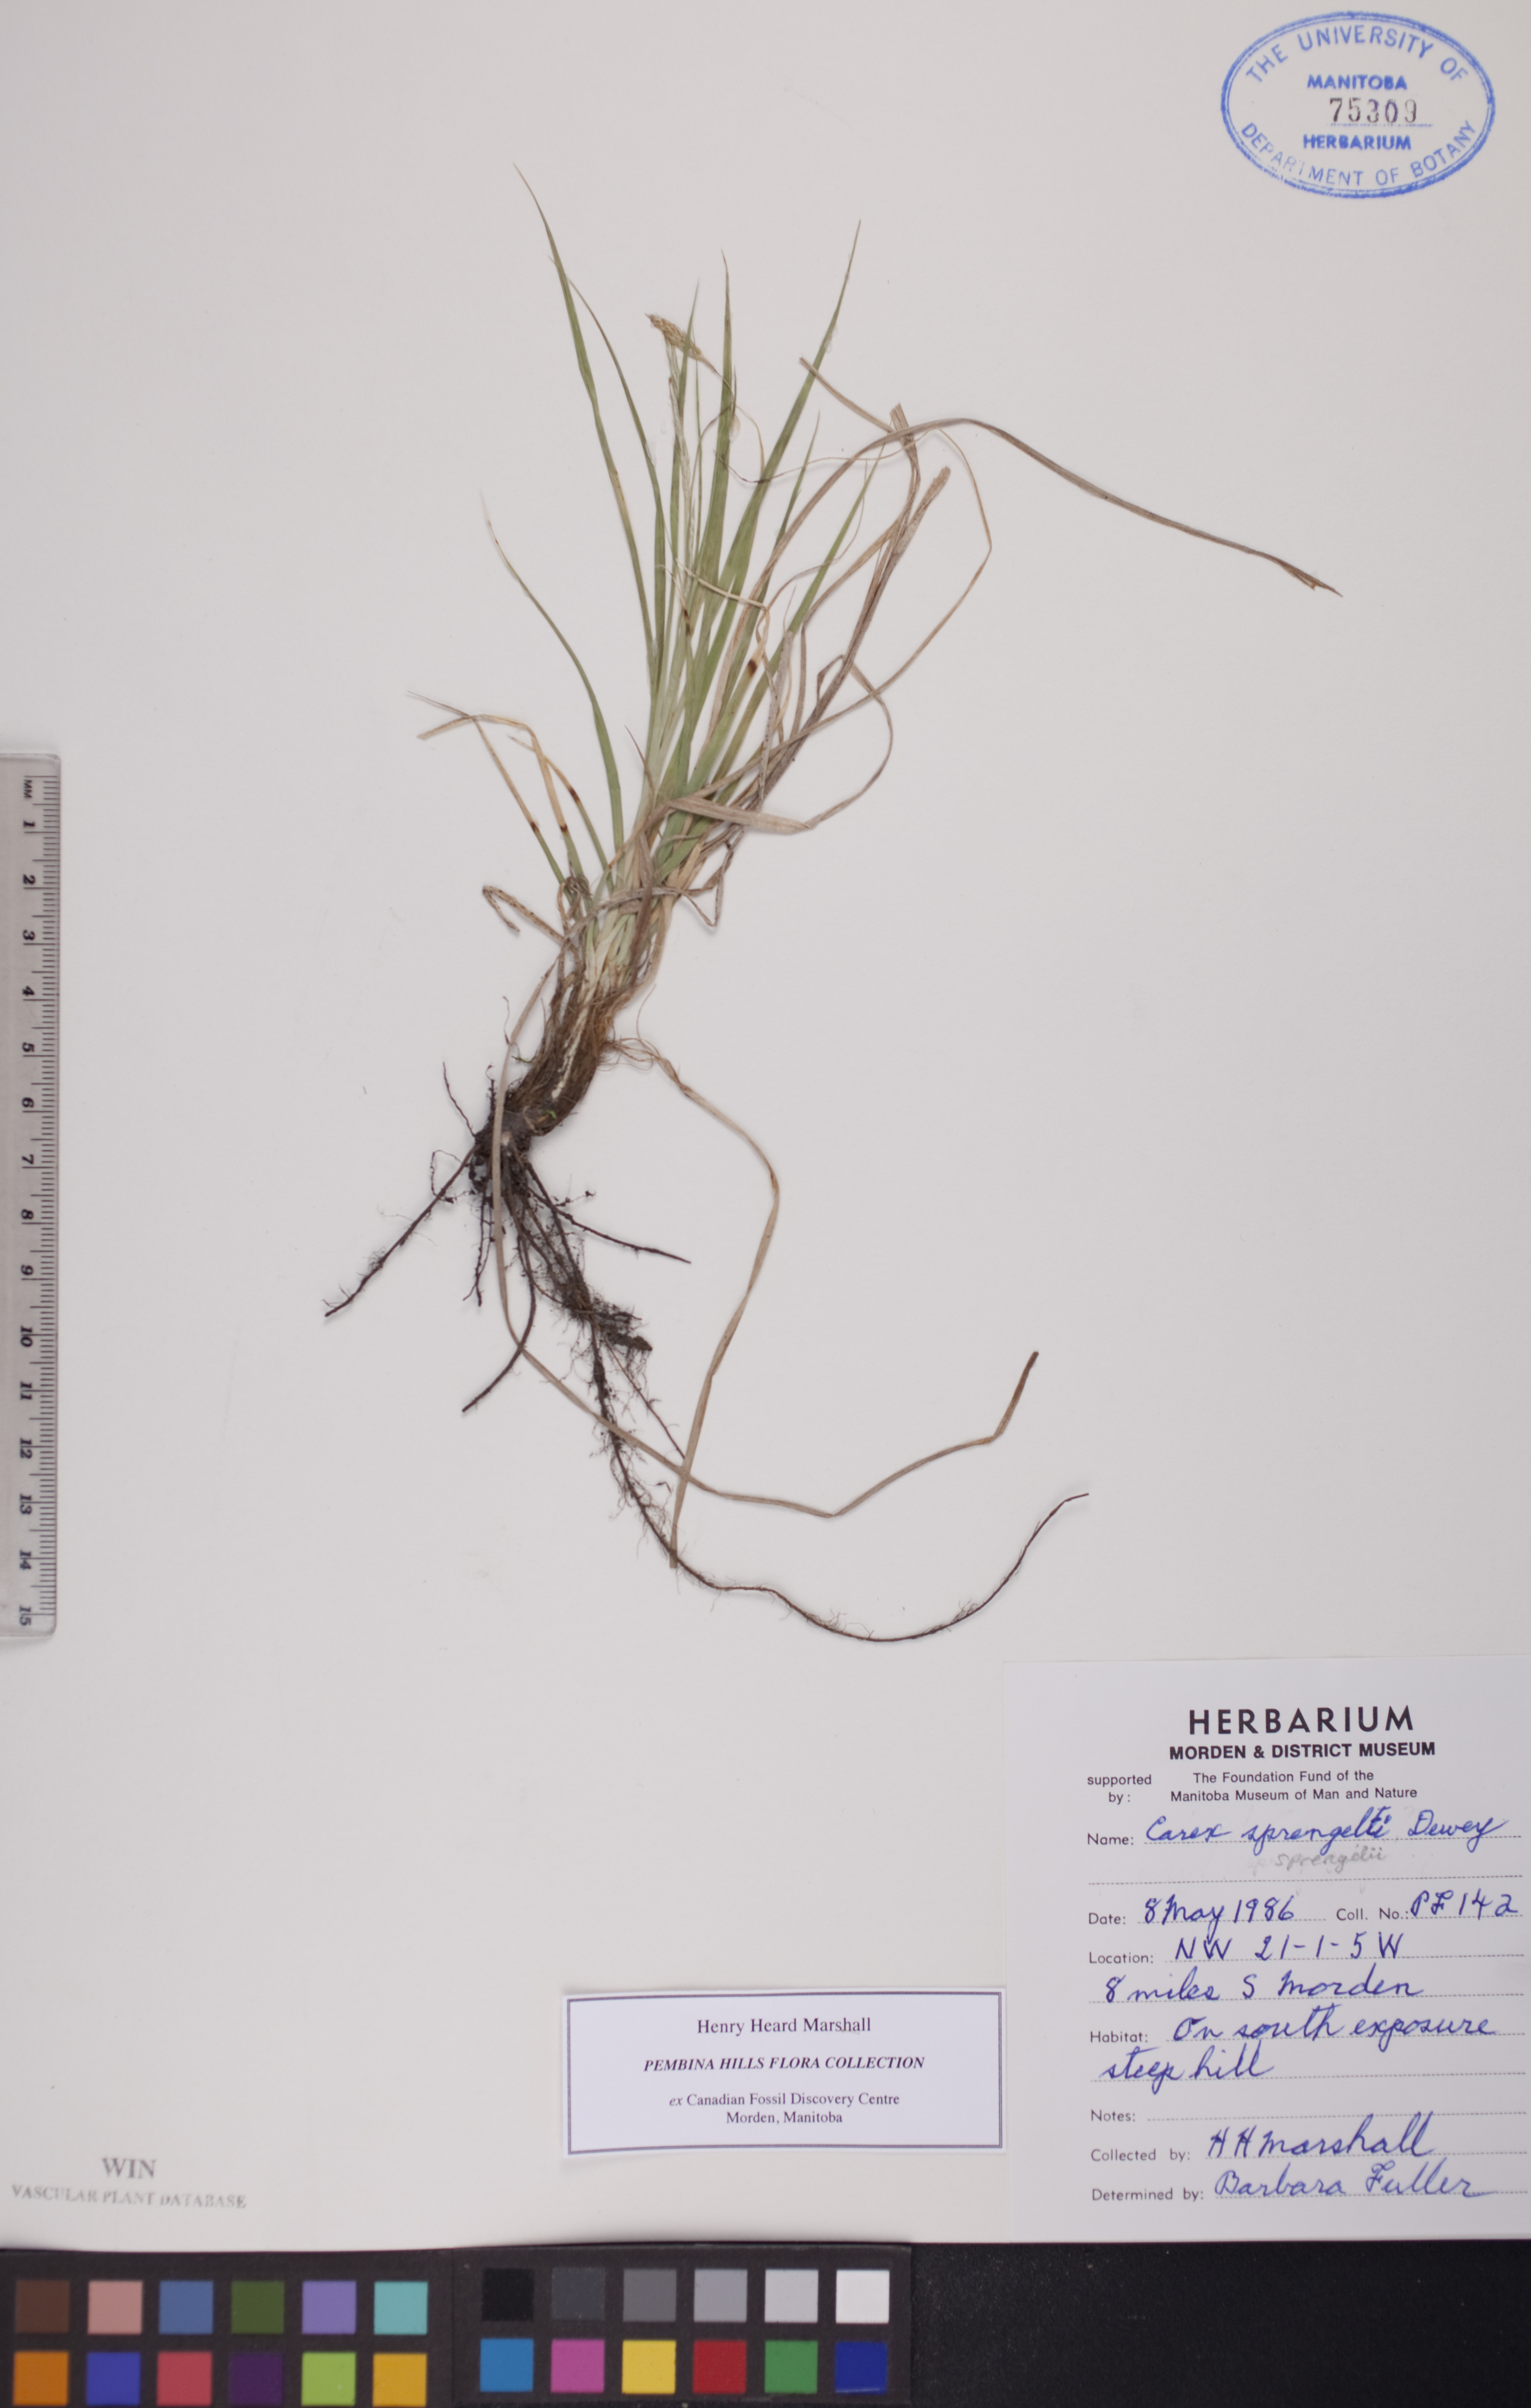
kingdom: Plantae
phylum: Tracheophyta
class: Liliopsida
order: Poales
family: Cyperaceae
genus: Carex
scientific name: Carex sprengelii
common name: Long-beaked sedge
